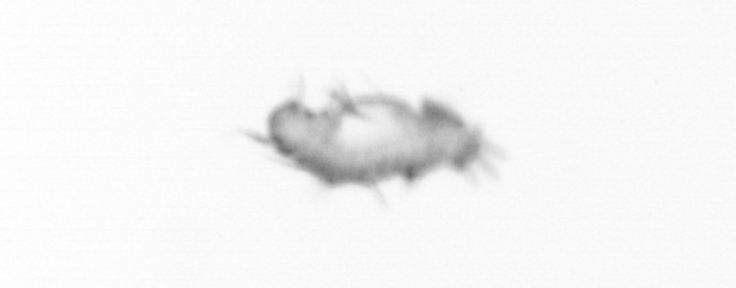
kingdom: Animalia
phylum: Annelida
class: Polychaeta
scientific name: Polychaeta
